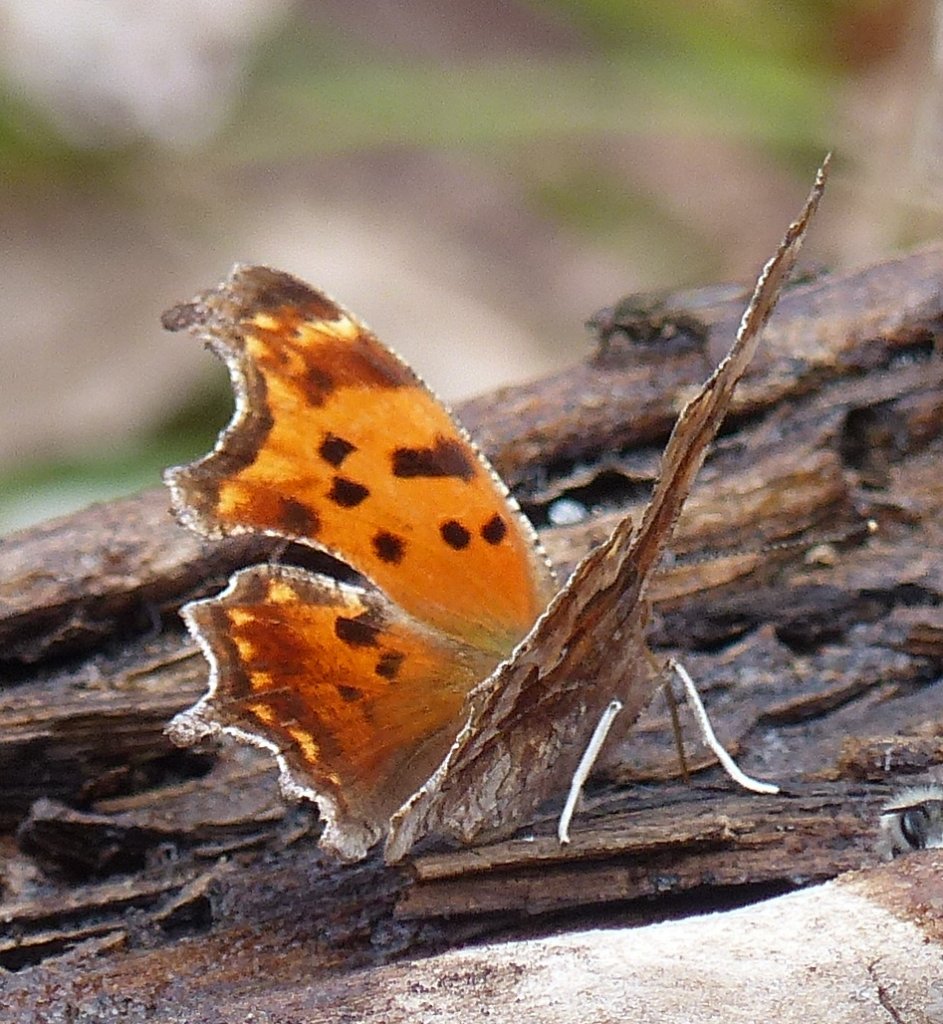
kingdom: Animalia
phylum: Arthropoda
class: Insecta
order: Lepidoptera
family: Nymphalidae
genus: Polygonia
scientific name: Polygonia comma
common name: Eastern Comma
